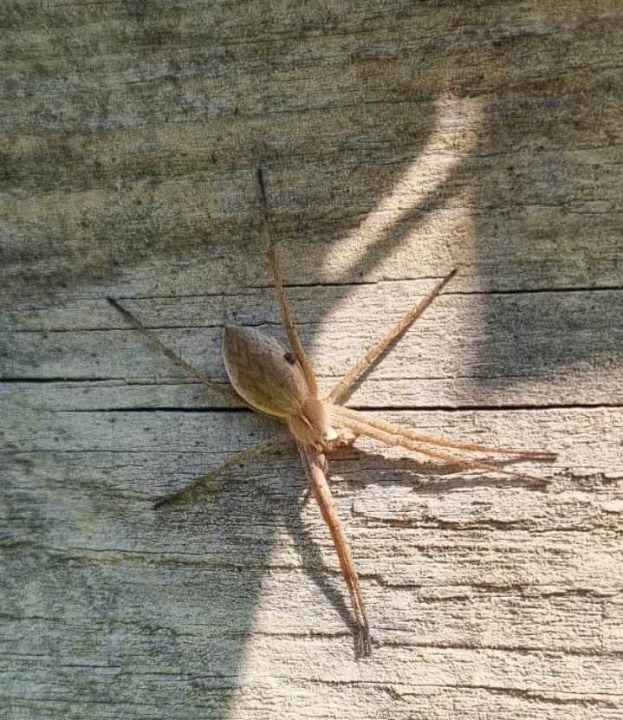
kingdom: Animalia
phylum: Arthropoda
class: Arachnida
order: Araneae
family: Pisauridae
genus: Pisaura
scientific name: Pisaura mirabilis
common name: Almindelig rovedderkop
